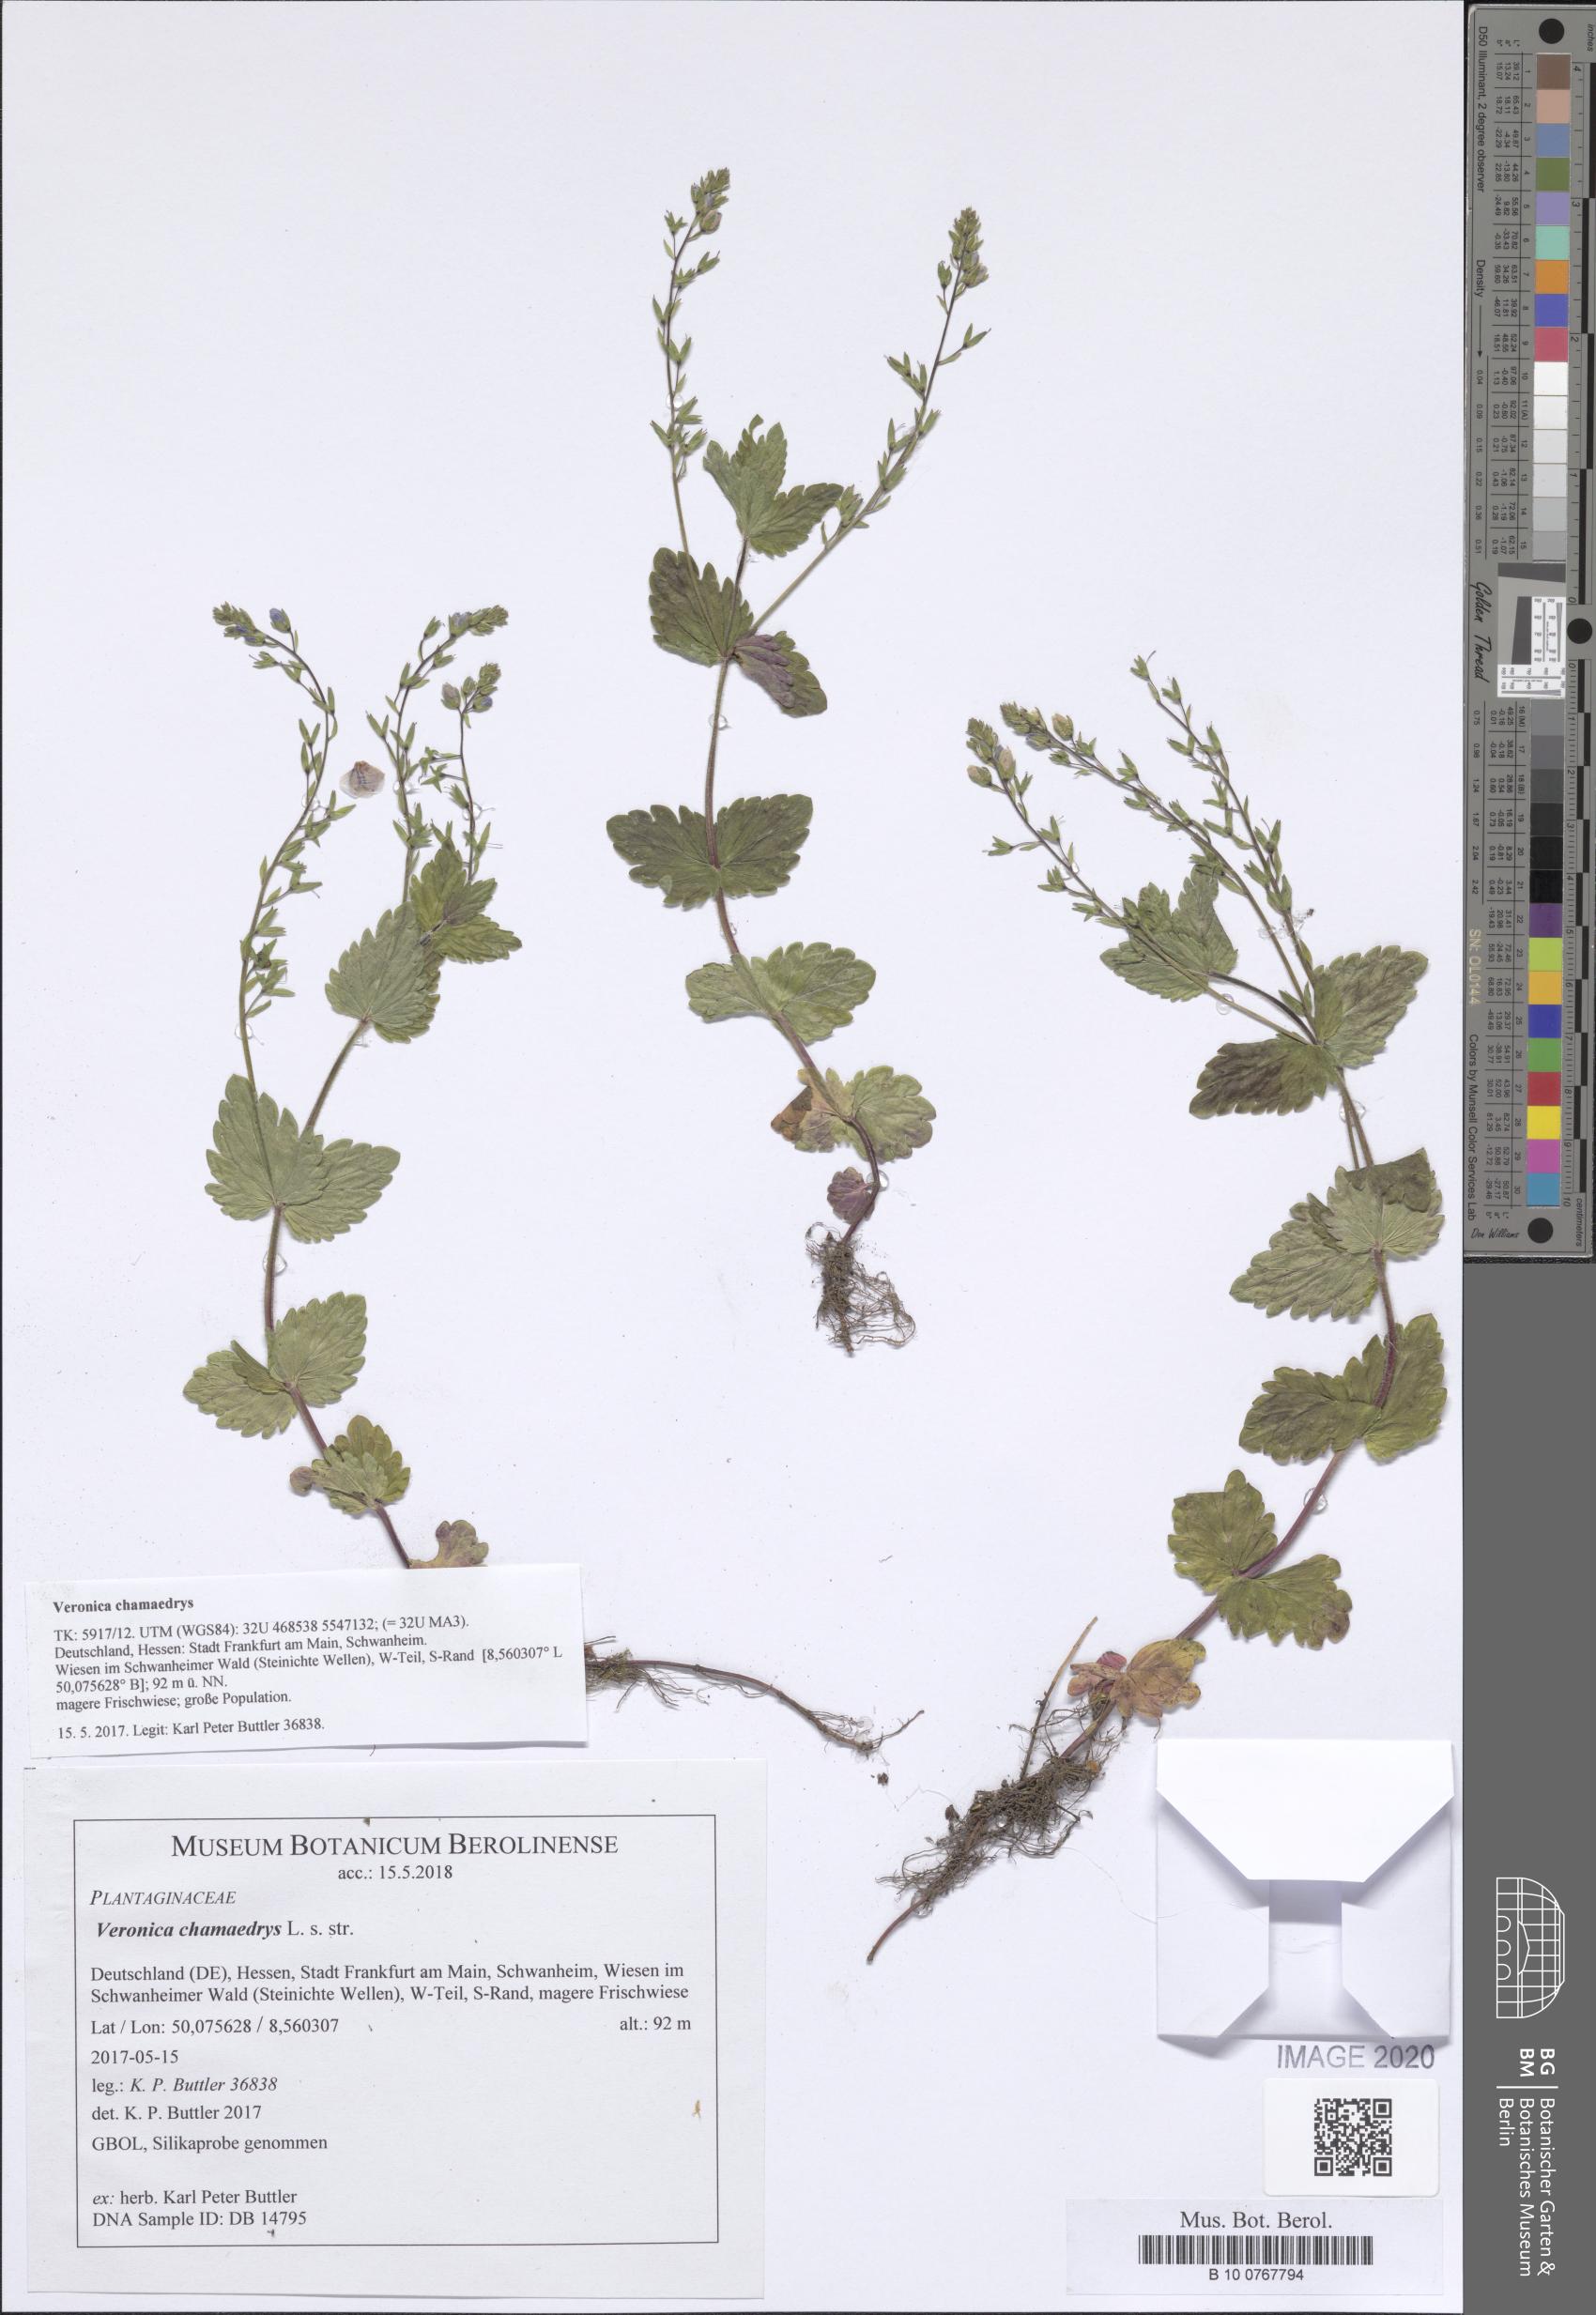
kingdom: Plantae
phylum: Tracheophyta
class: Magnoliopsida
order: Lamiales
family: Plantaginaceae
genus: Veronica
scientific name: Veronica chamaedrys
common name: Germander speedwell
